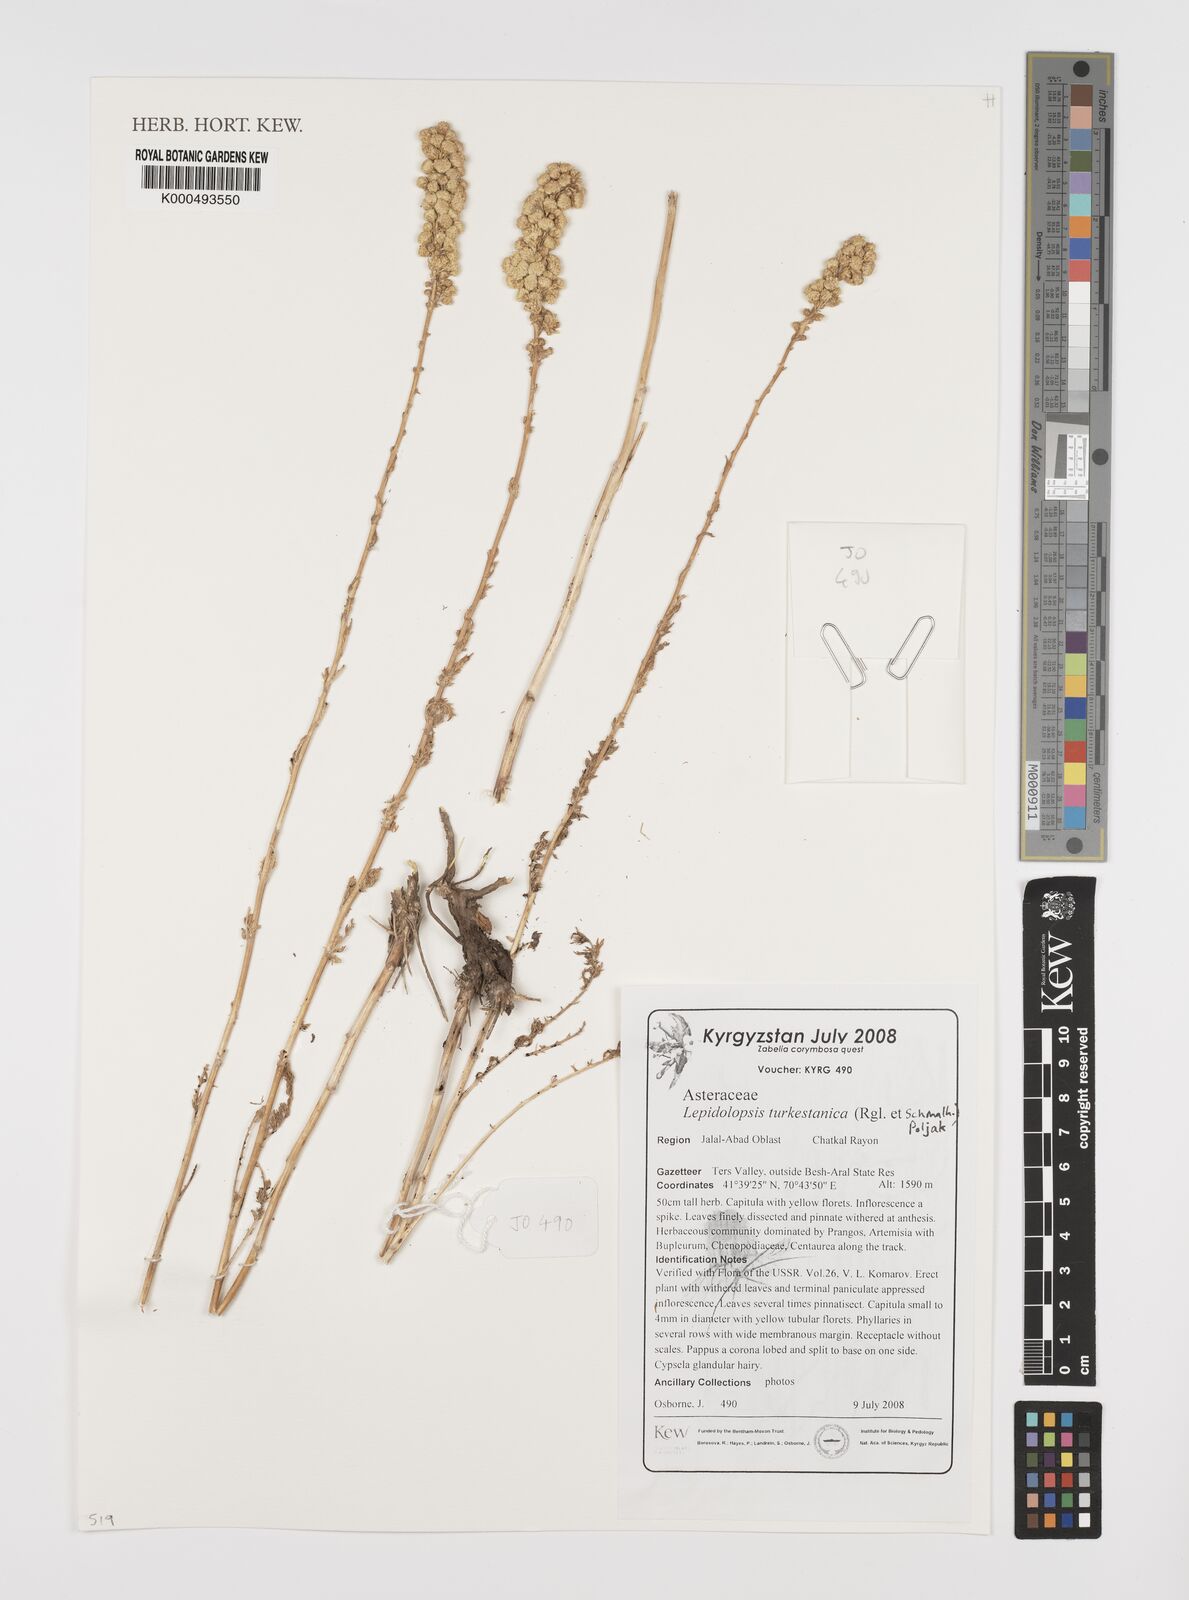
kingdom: Plantae
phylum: Tracheophyta
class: Magnoliopsida
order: Asterales
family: Asteraceae
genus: Lepidolopsis
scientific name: Lepidolopsis turkestanica
